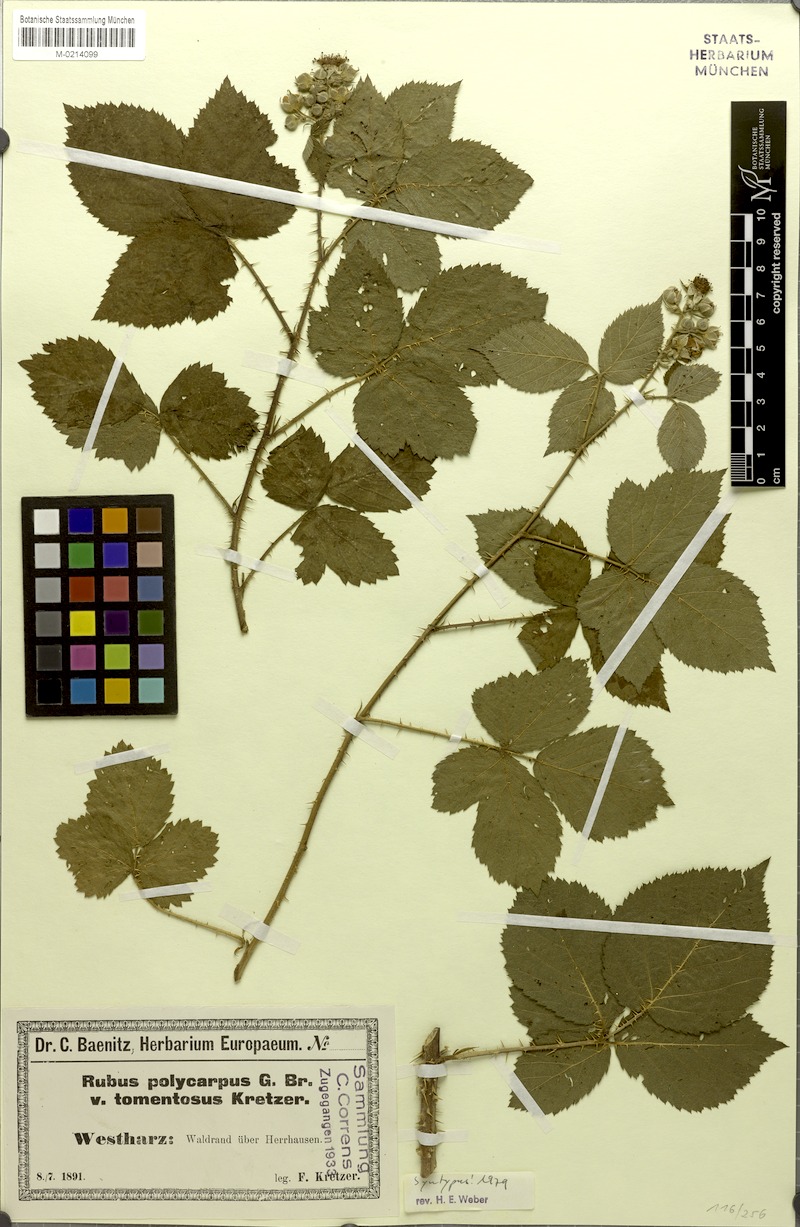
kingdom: Plantae
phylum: Tracheophyta
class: Magnoliopsida
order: Rosales
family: Rosaceae
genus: Rubus
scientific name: Rubus fabrimontanus
